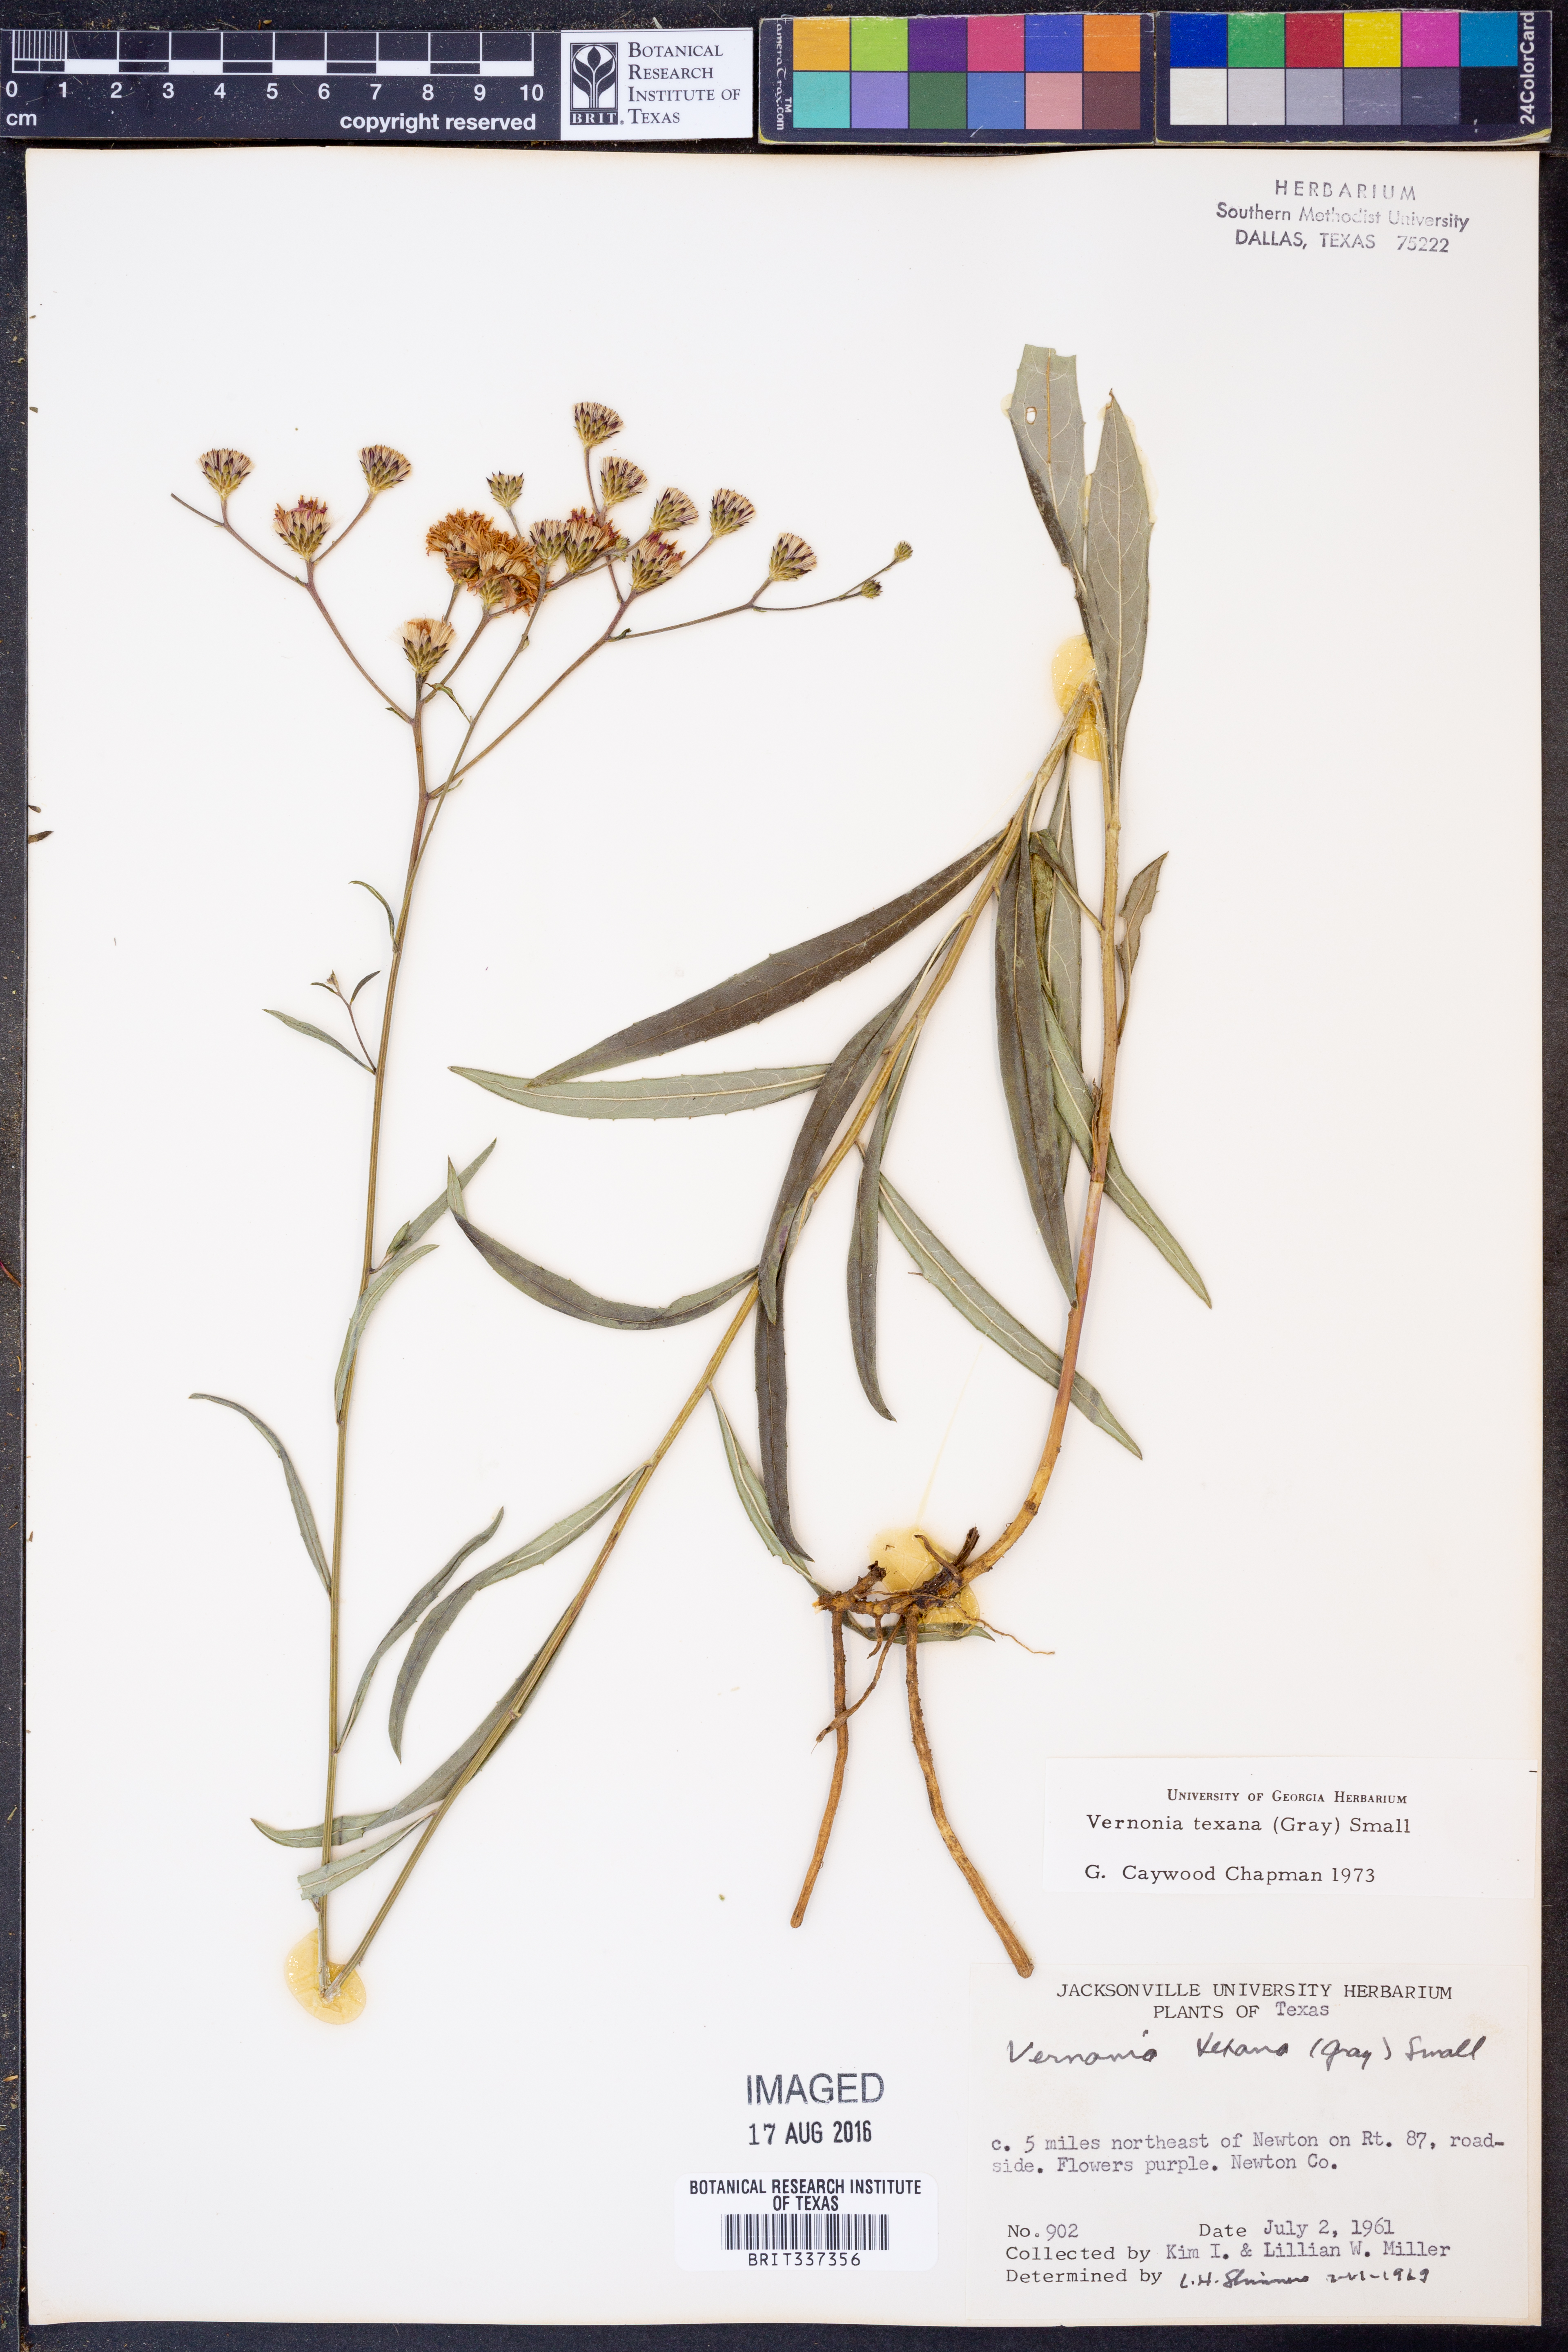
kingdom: Plantae
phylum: Tracheophyta
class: Magnoliopsida
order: Asterales
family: Asteraceae
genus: Vernonia
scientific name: Vernonia texana
